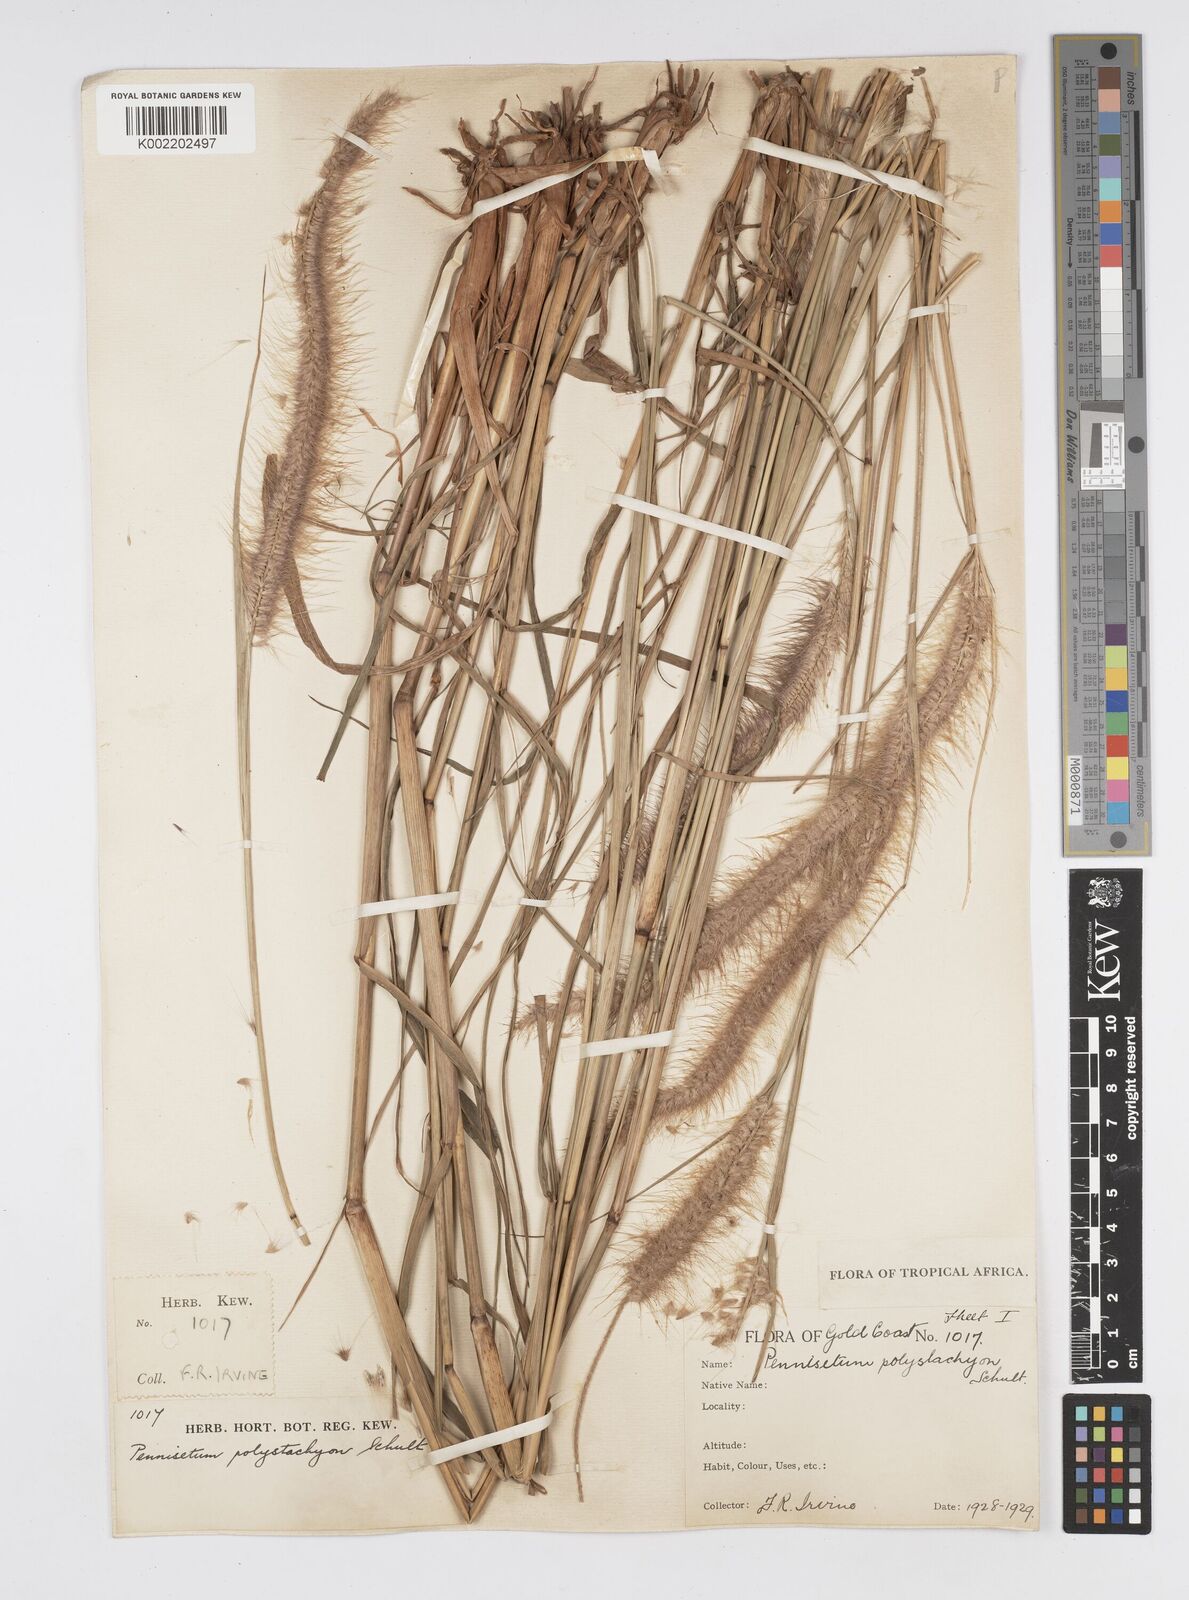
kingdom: Plantae
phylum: Tracheophyta
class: Liliopsida
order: Poales
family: Poaceae
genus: Setaria
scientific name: Setaria parviflora
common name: Knotroot bristle-grass
